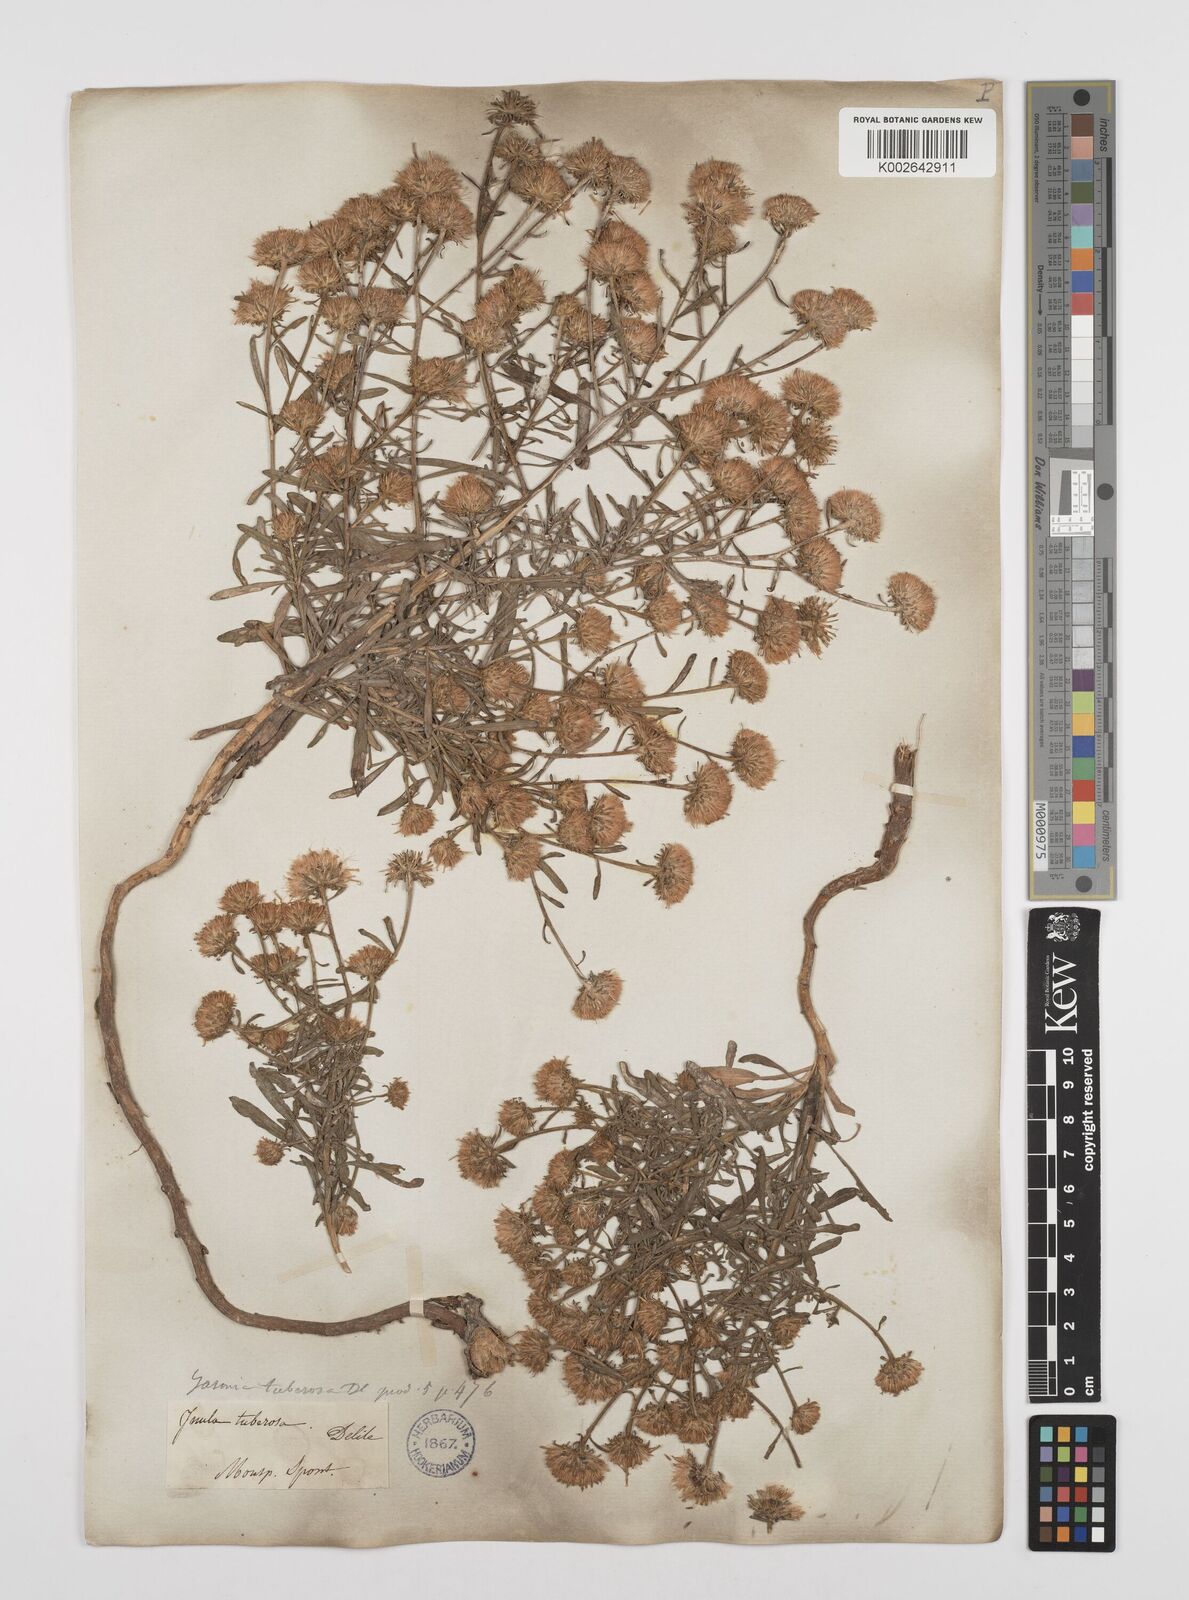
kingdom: Plantae
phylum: Tracheophyta
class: Magnoliopsida
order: Asterales
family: Asteraceae
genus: Jasonia
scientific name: Jasonia tuberosa
